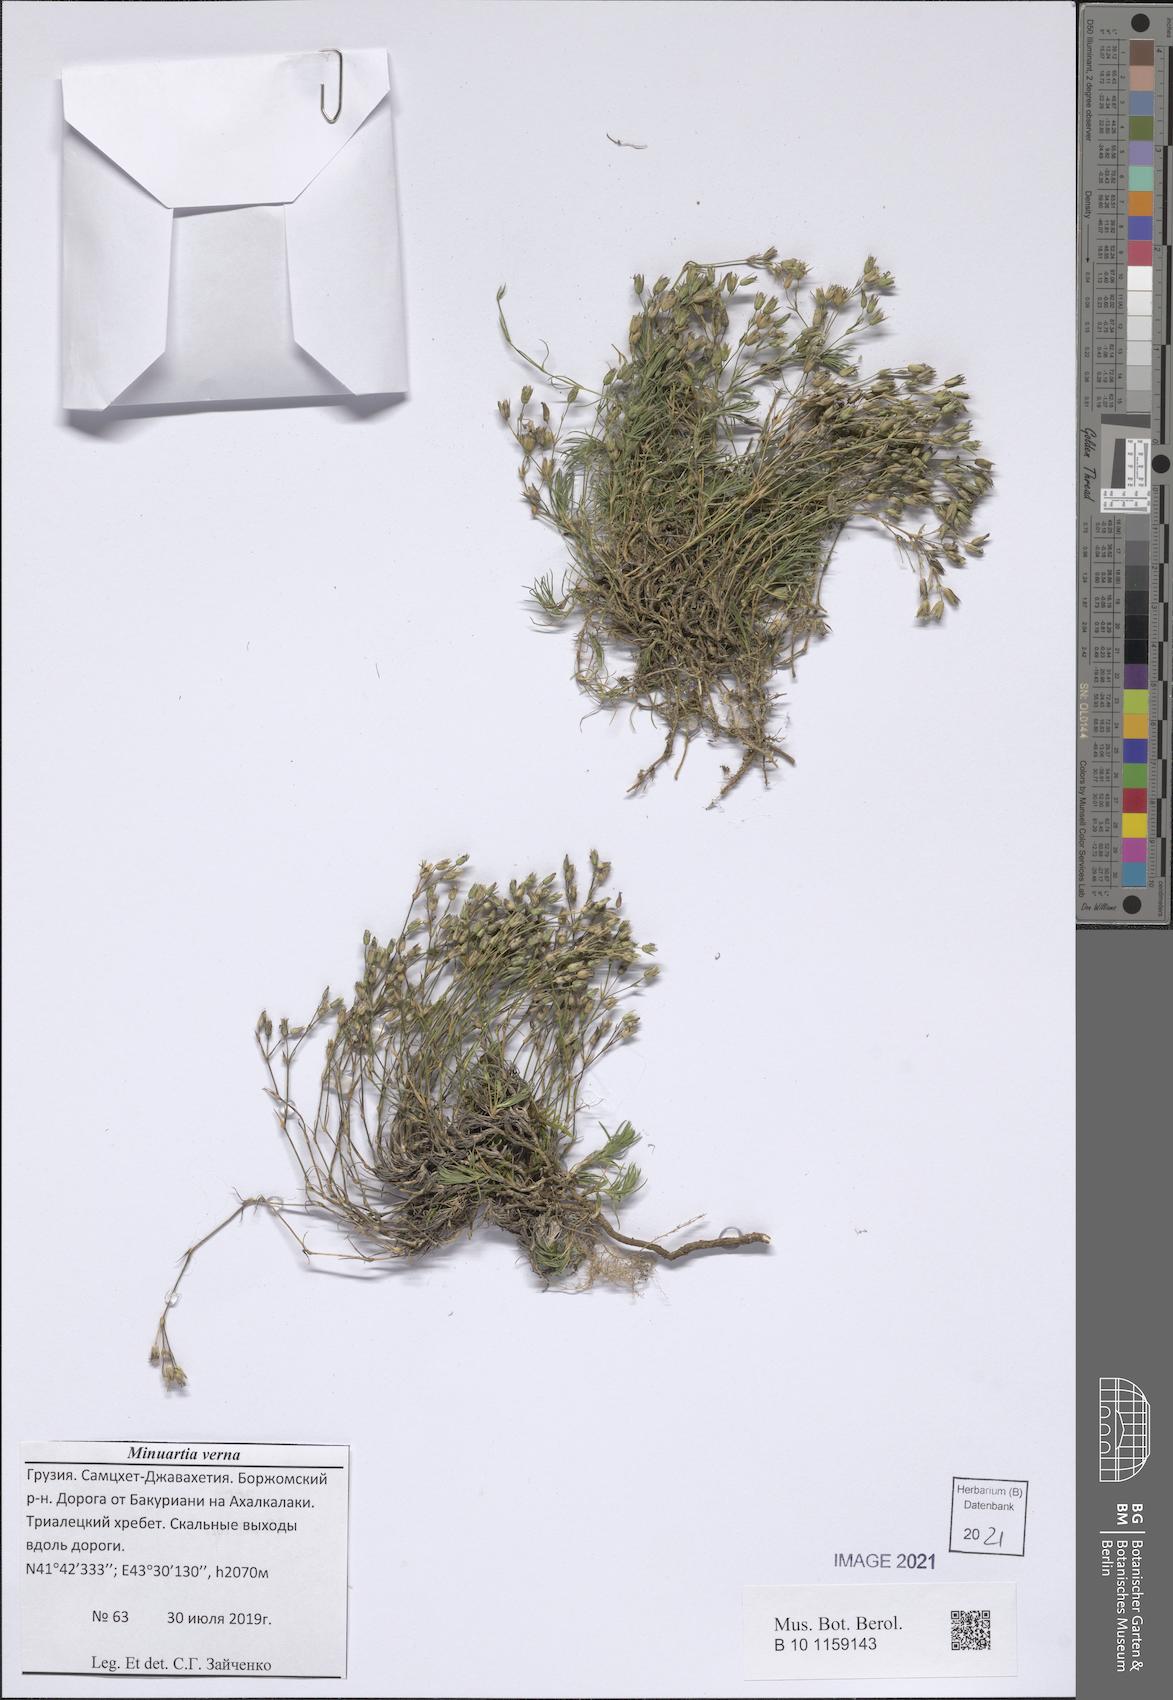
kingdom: Plantae
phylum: Tracheophyta
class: Magnoliopsida
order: Caryophyllales
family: Caryophyllaceae
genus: Sabulina
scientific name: Sabulina verna
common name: Spring sandwort
